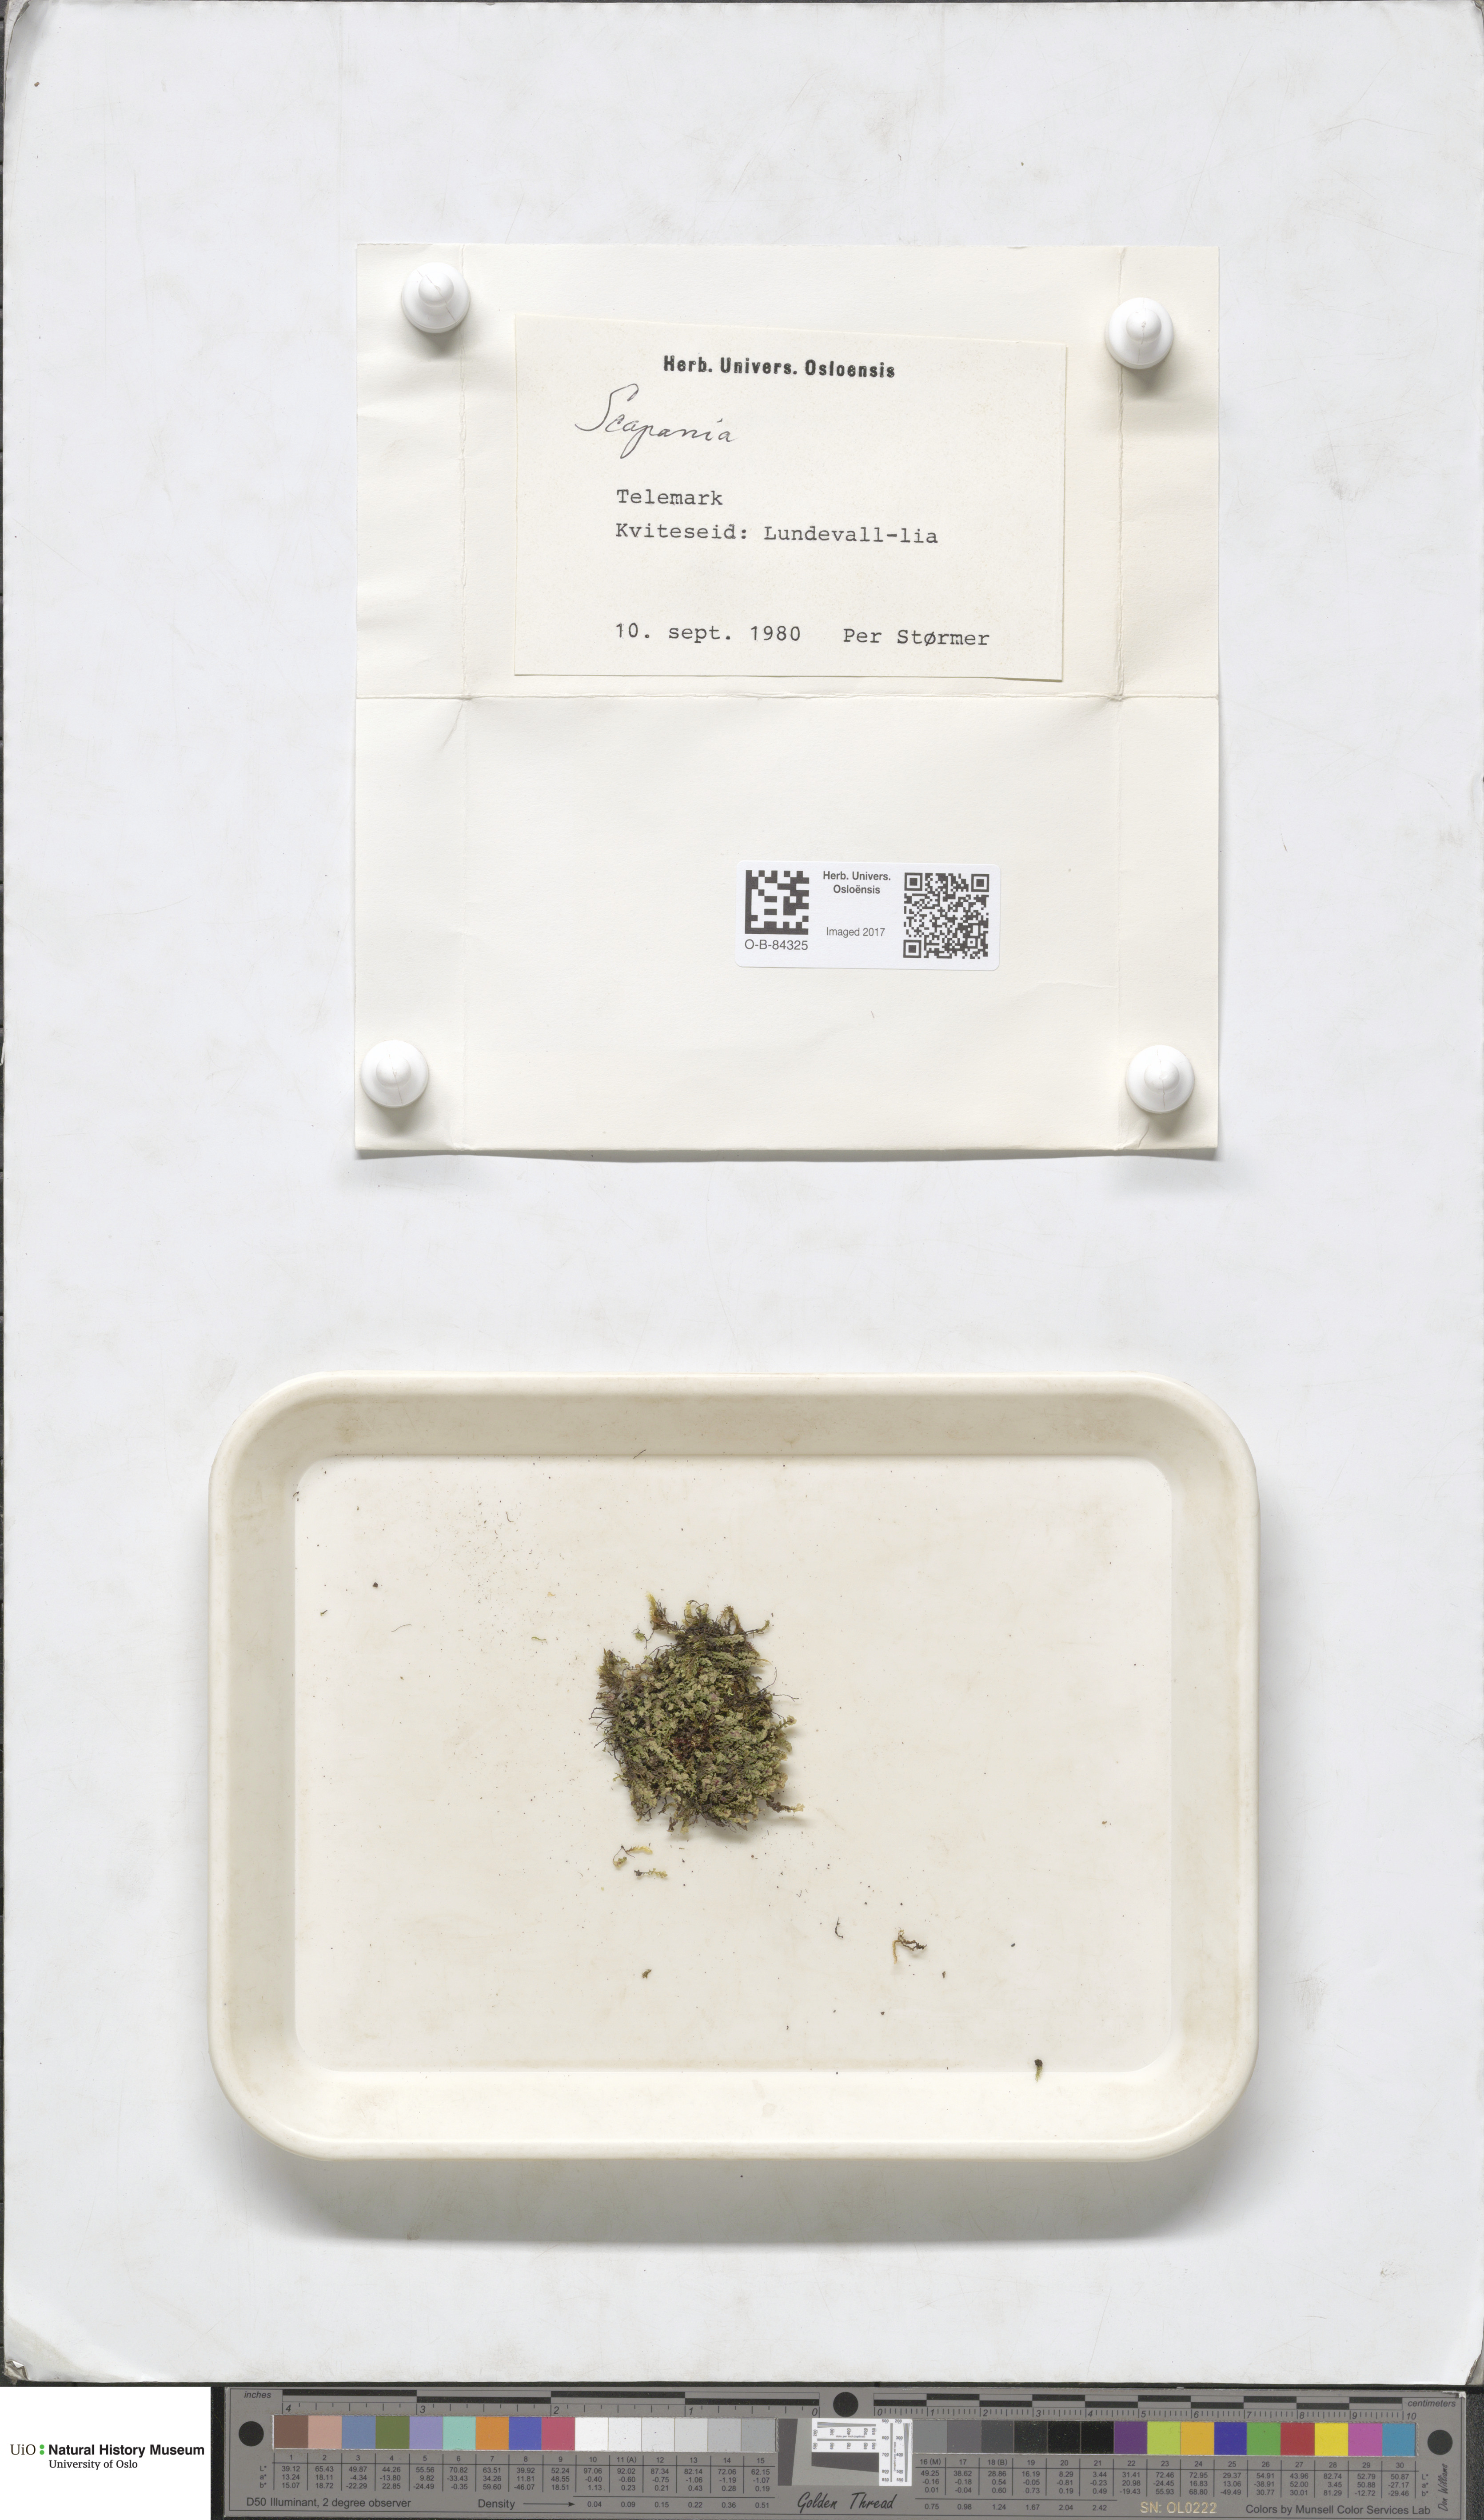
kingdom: Plantae
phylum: Marchantiophyta
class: Jungermanniopsida
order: Jungermanniales
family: Scapaniaceae
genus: Scapania
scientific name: Scapania
